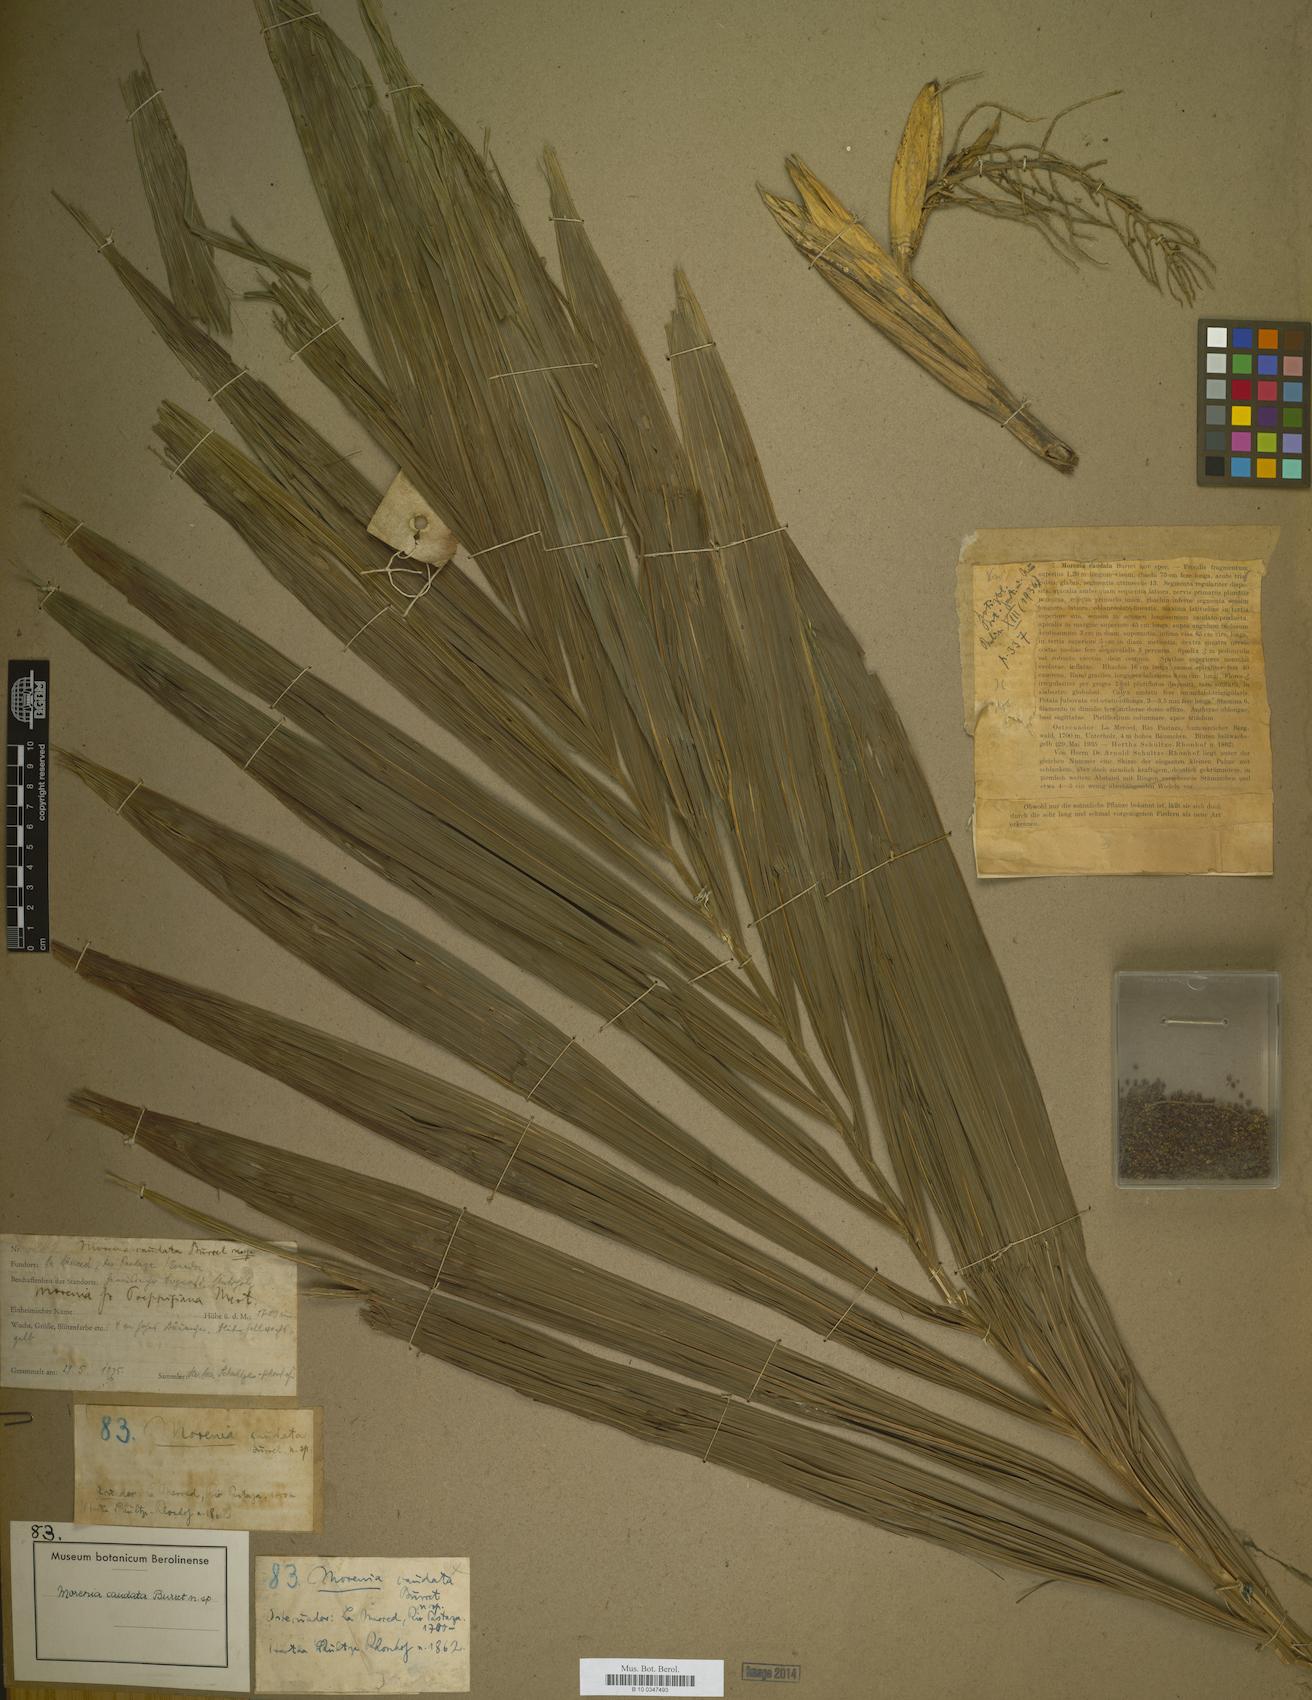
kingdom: Plantae
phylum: Tracheophyta
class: Liliopsida
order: Arecales
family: Arecaceae
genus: Chamaedorea
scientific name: Chamaedorea linearis
